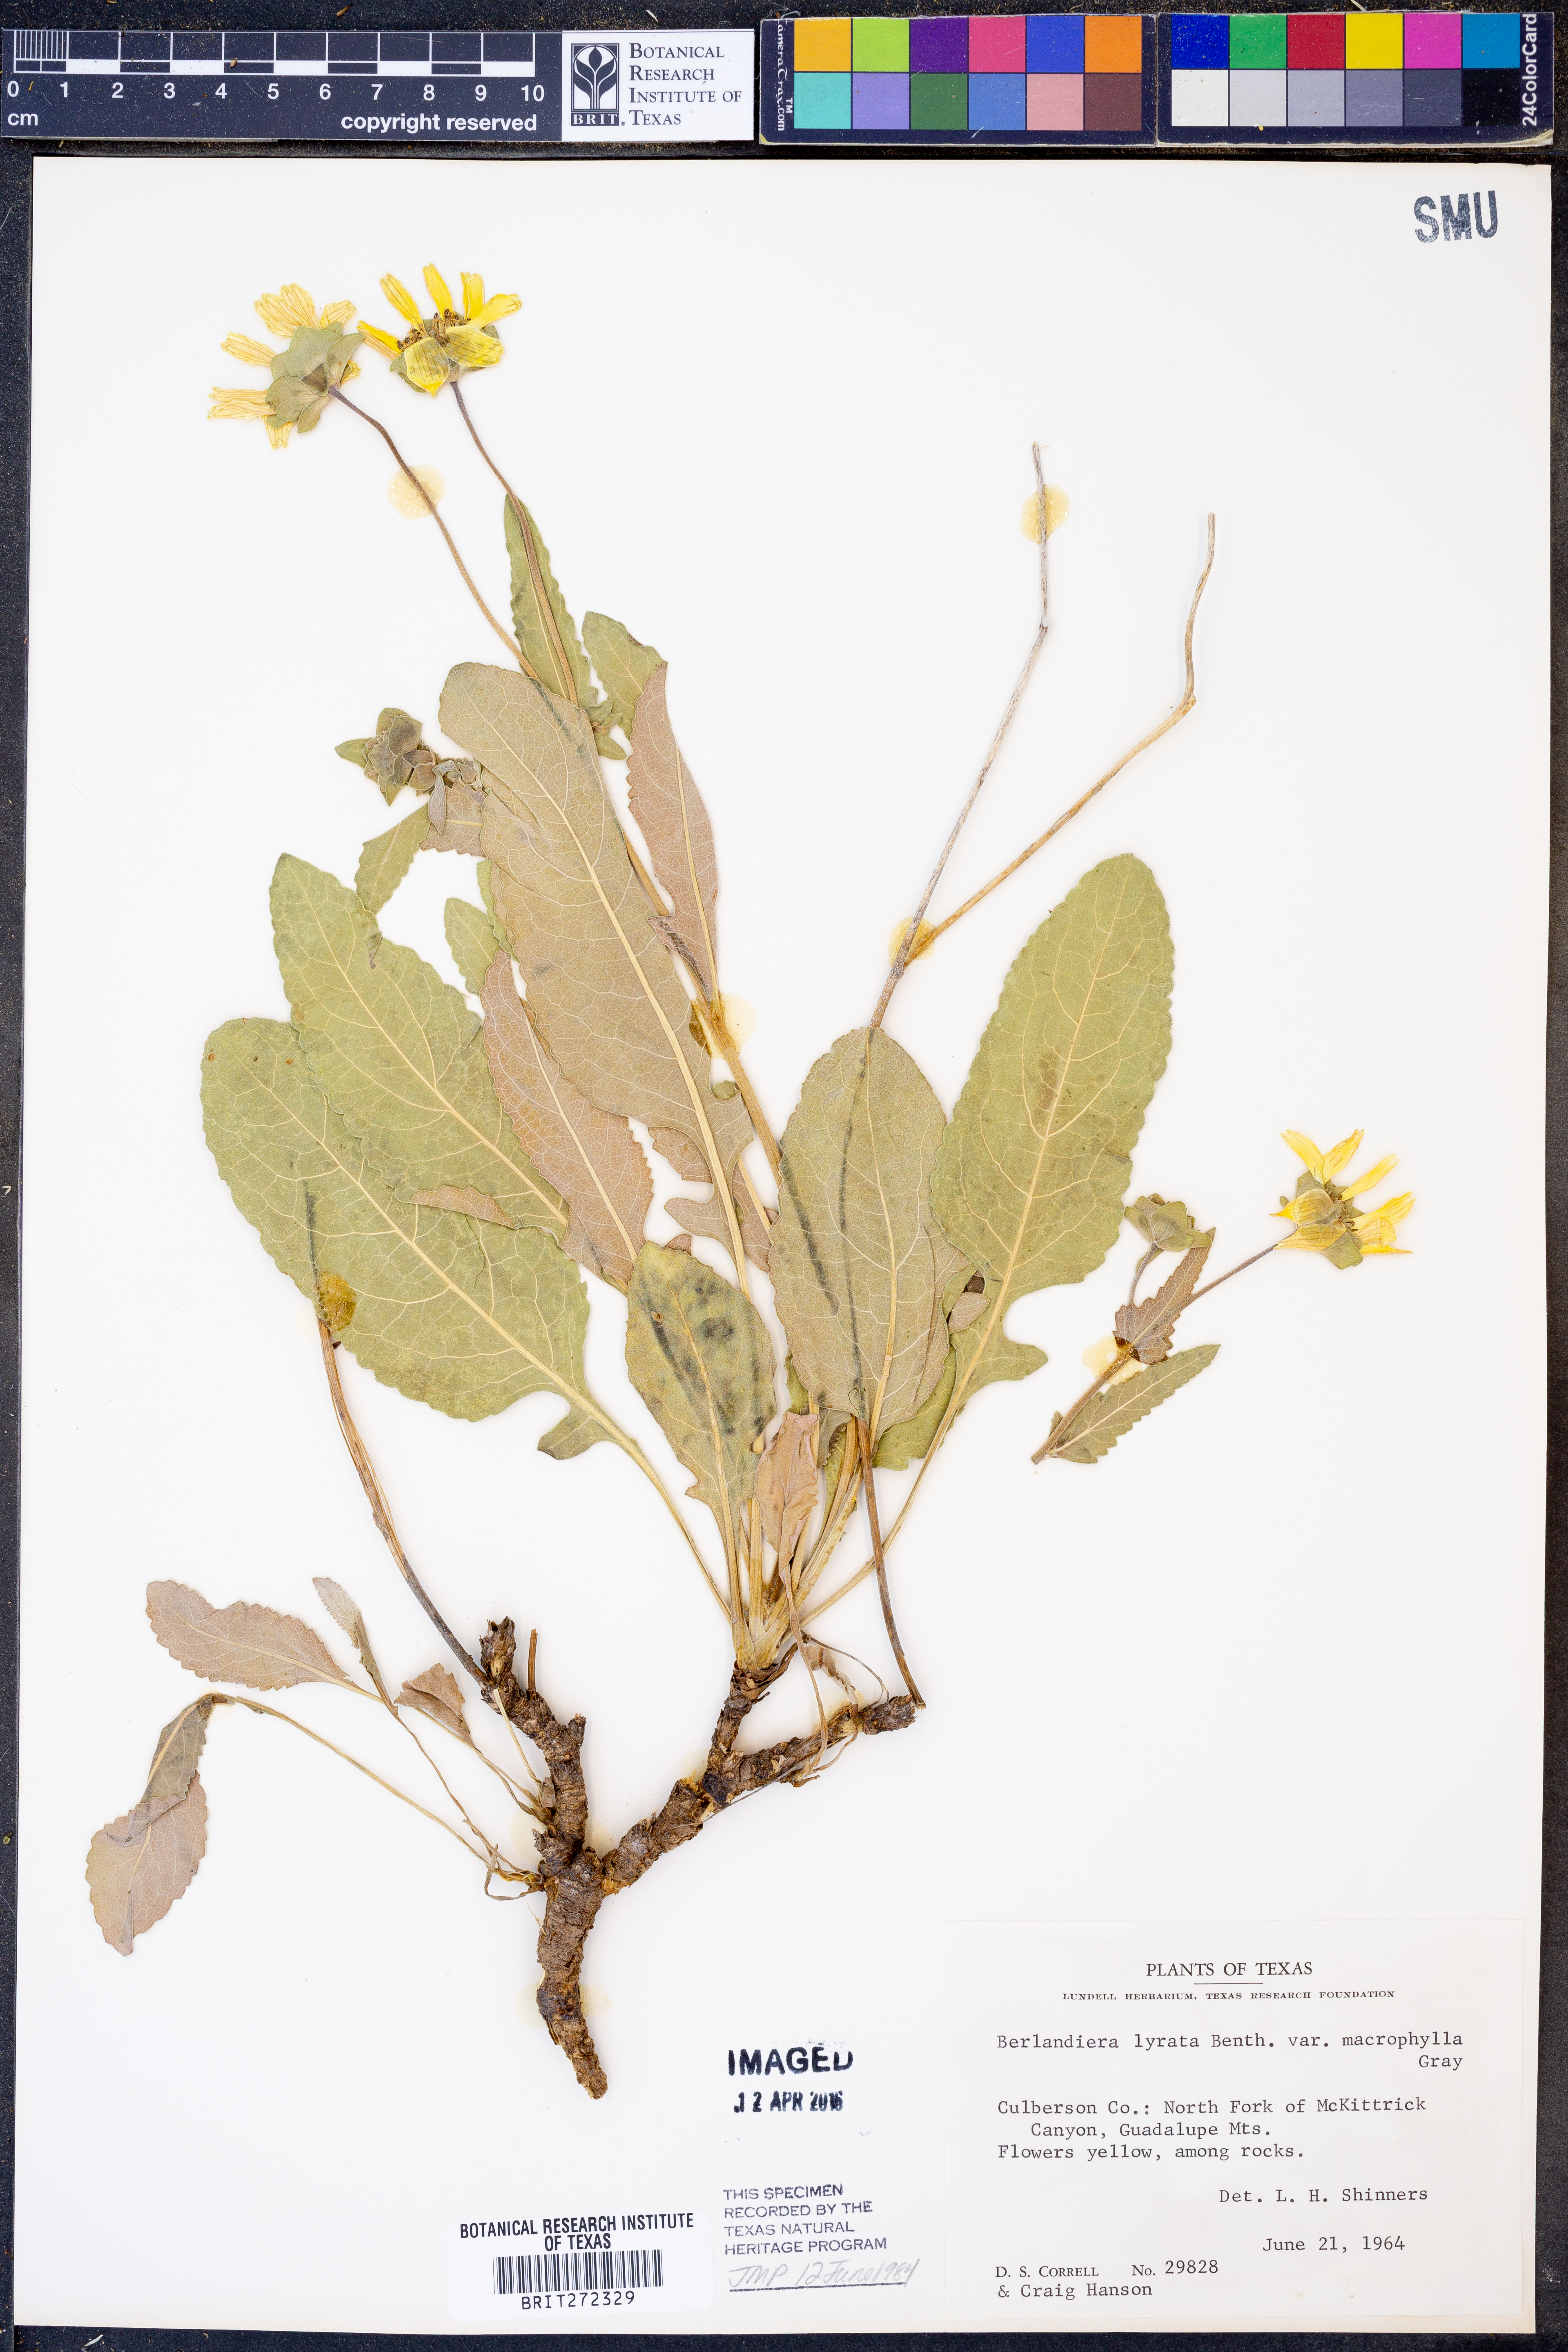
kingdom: Plantae
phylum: Tracheophyta
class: Magnoliopsida
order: Asterales
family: Asteraceae
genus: Berlandiera
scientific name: Berlandiera macrophylla
